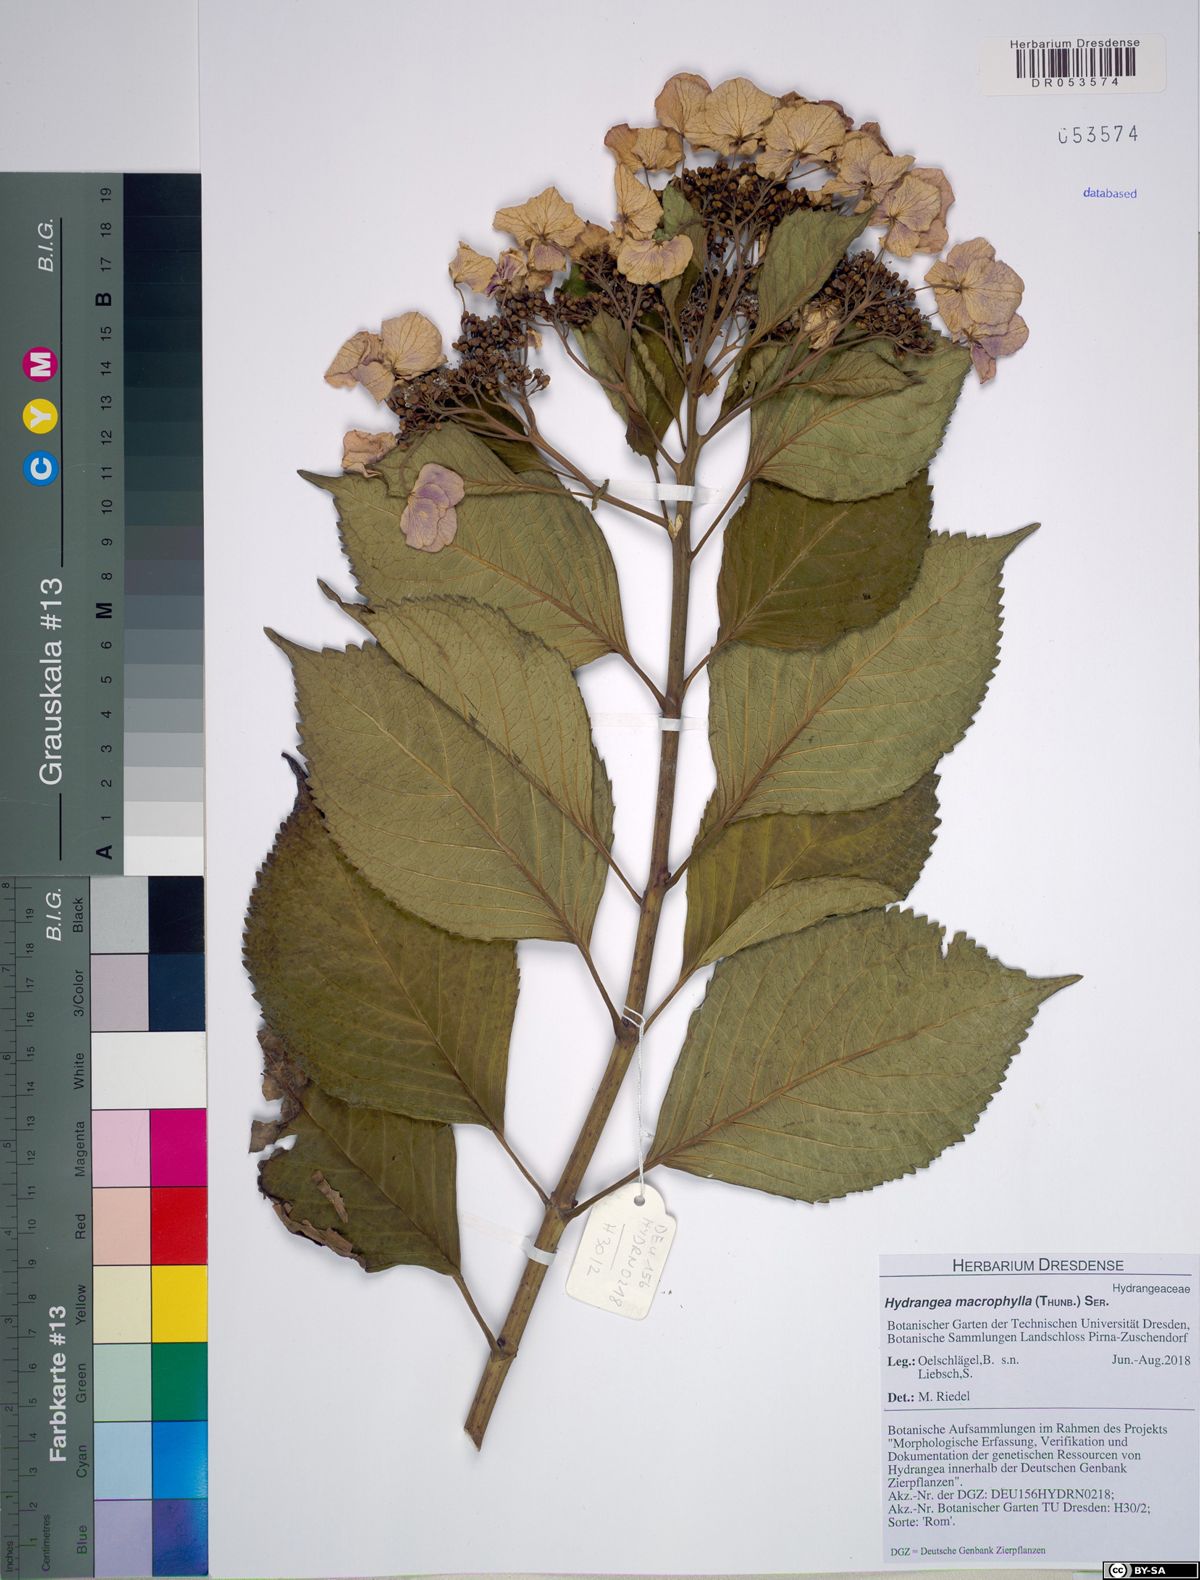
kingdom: Plantae
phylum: Tracheophyta
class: Magnoliopsida
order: Cornales
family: Hydrangeaceae
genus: Hydrangea
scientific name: Hydrangea macrophylla
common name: Hydrangea
